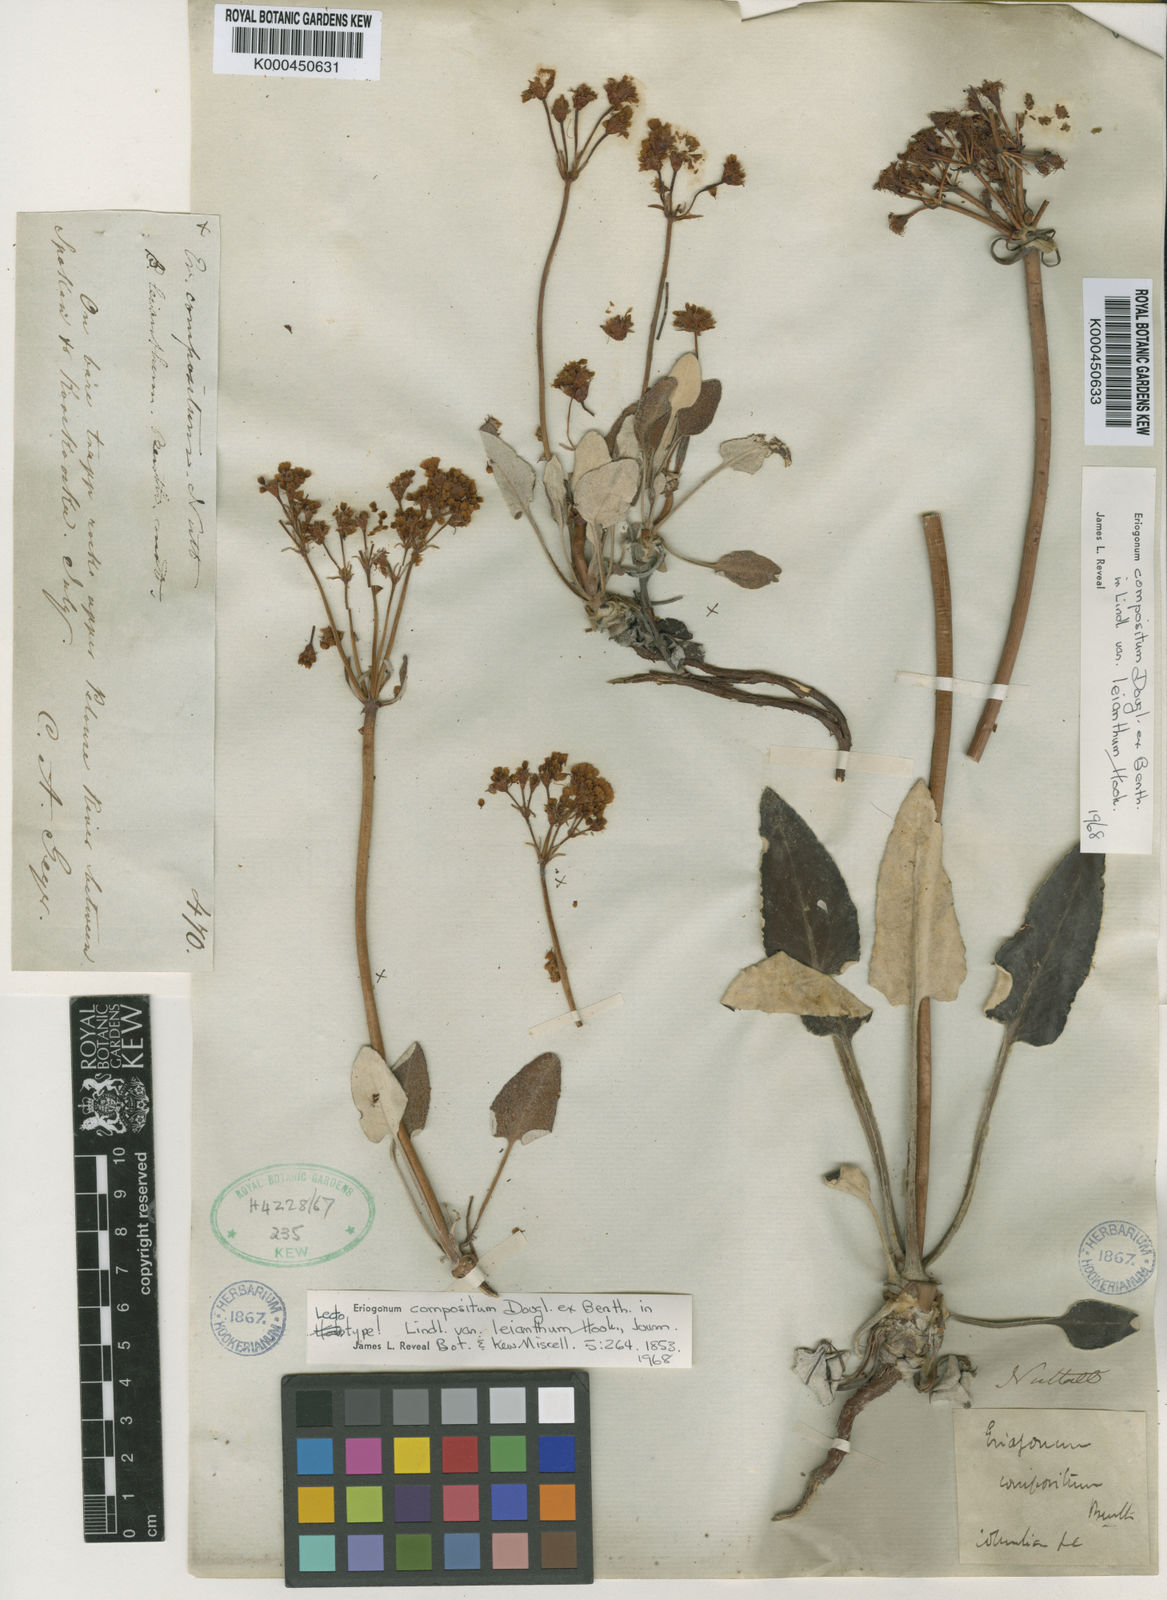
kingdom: Plantae
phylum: Tracheophyta
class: Magnoliopsida
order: Caryophyllales
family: Polygonaceae
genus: Eriogonum
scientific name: Eriogonum
